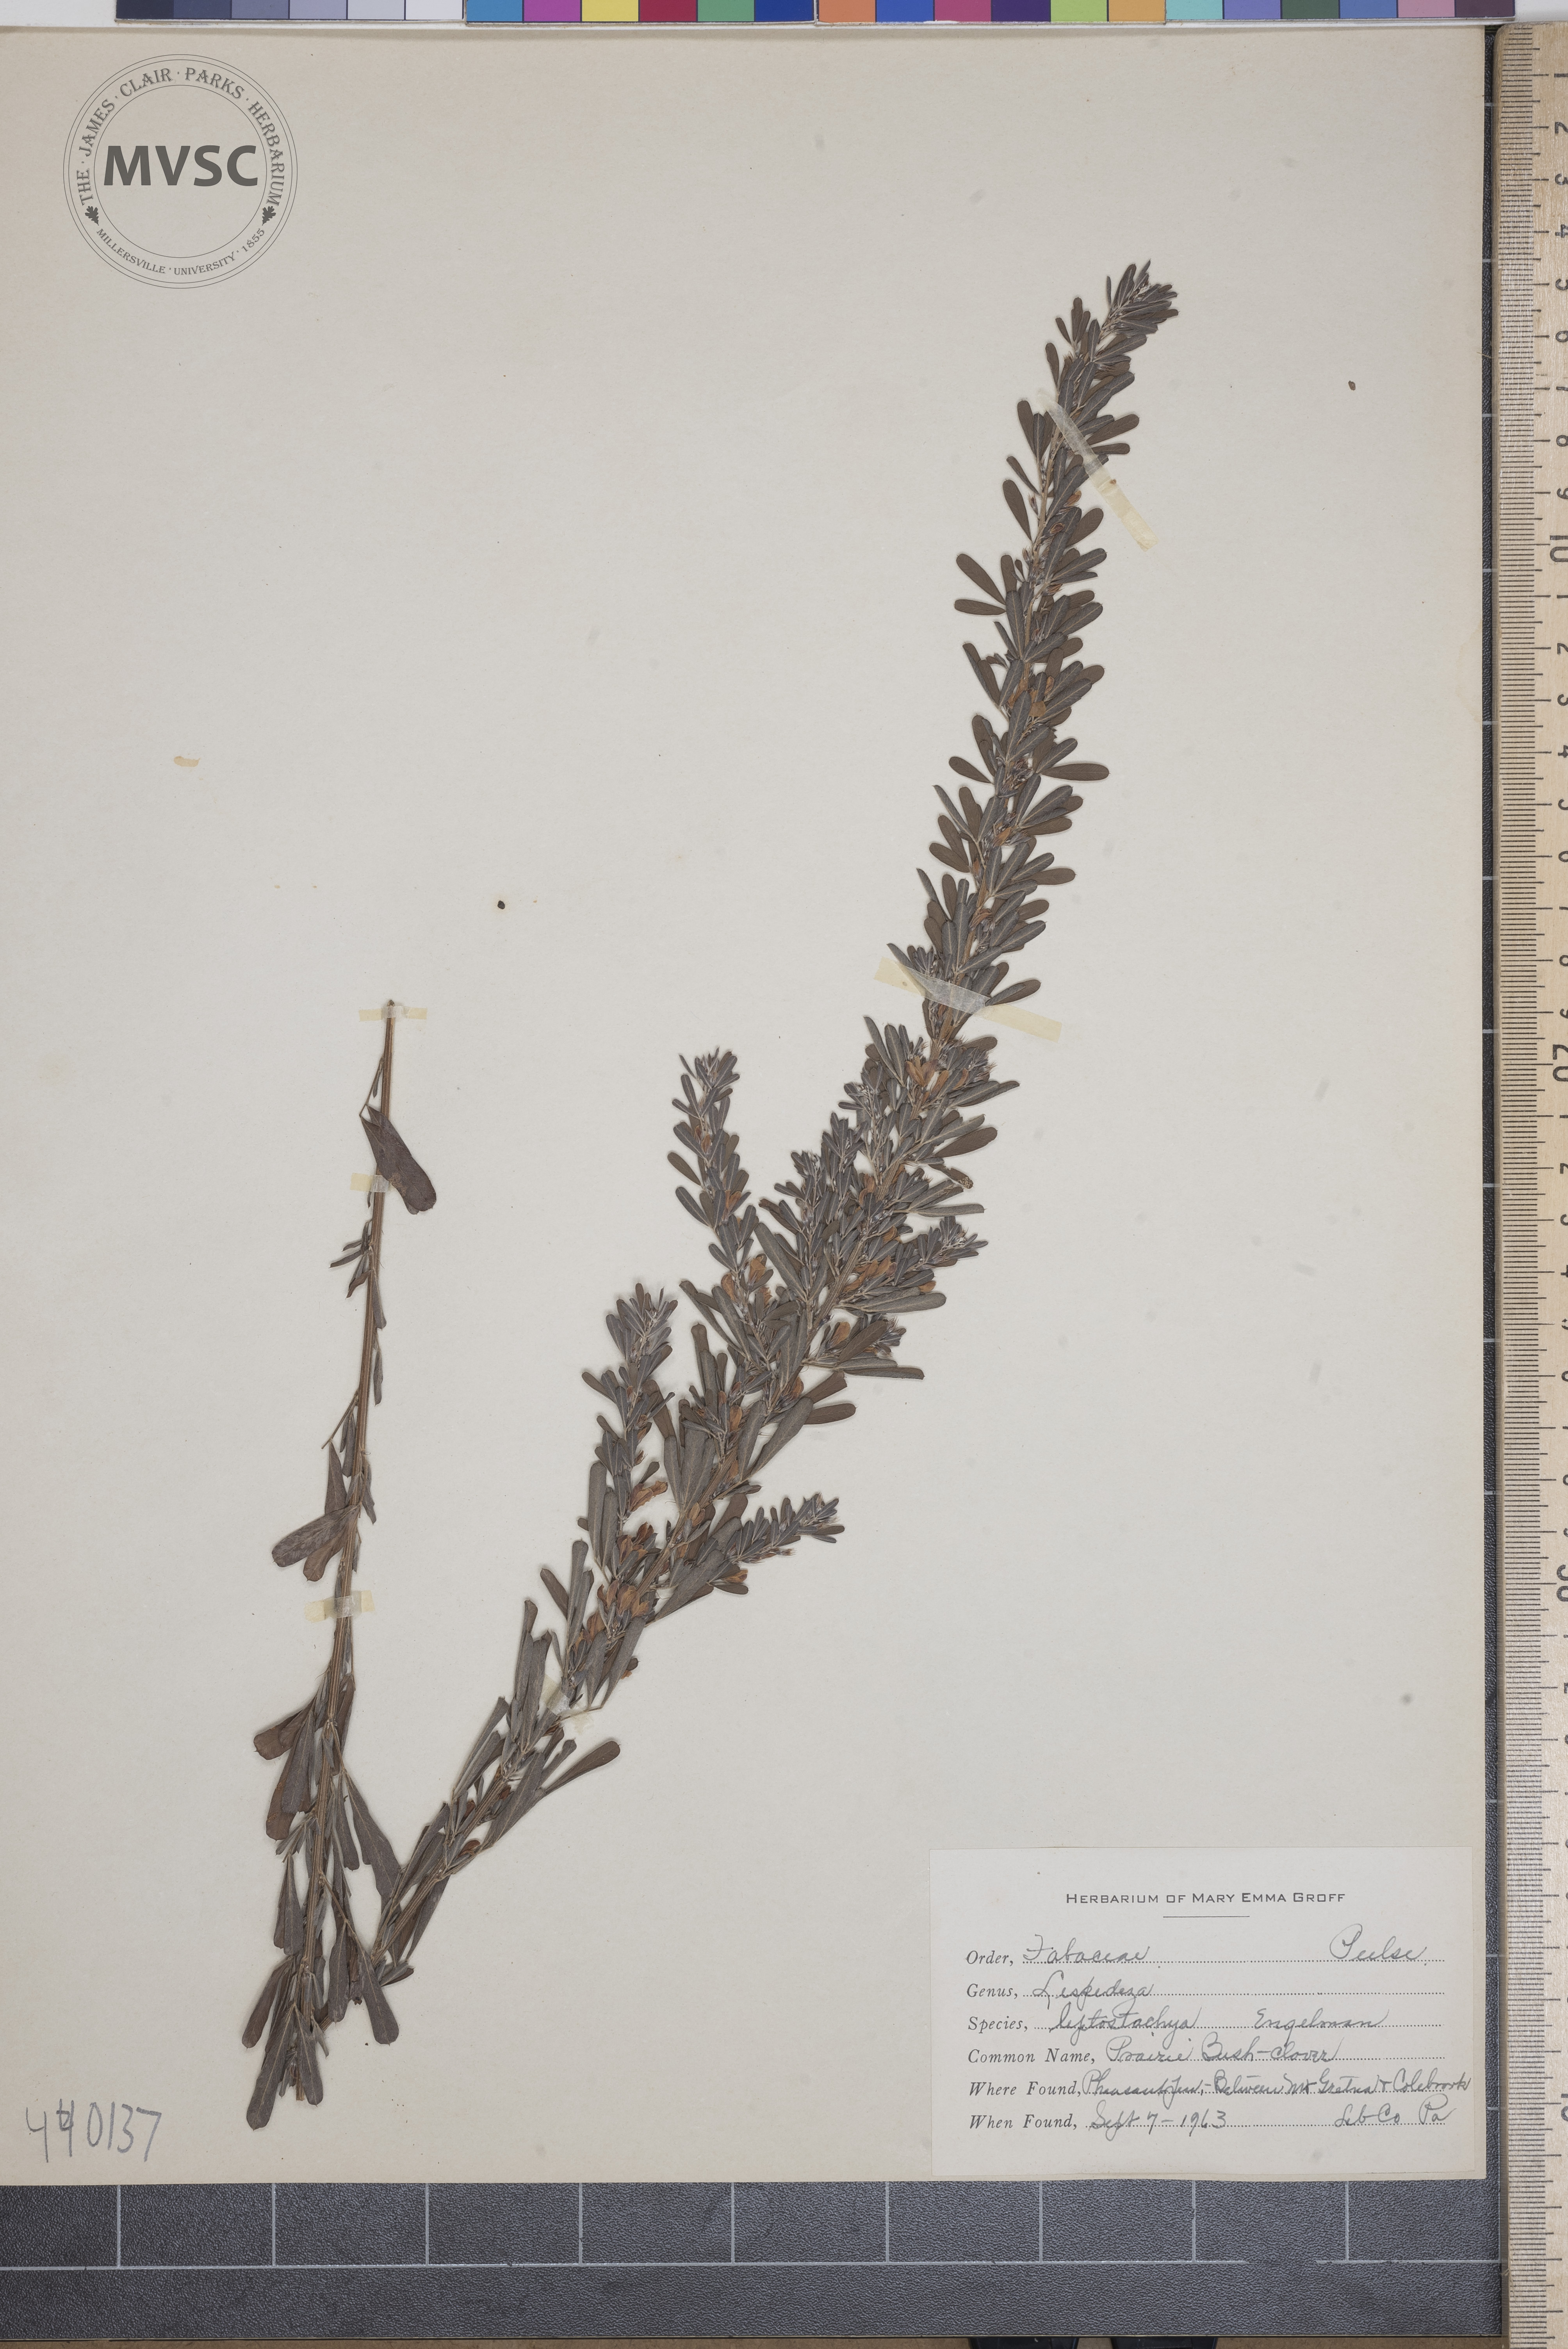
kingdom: Plantae
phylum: Tracheophyta
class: Magnoliopsida
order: Fabales
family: Fabaceae
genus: Lespedeza
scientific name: Lespedeza leptostachya
